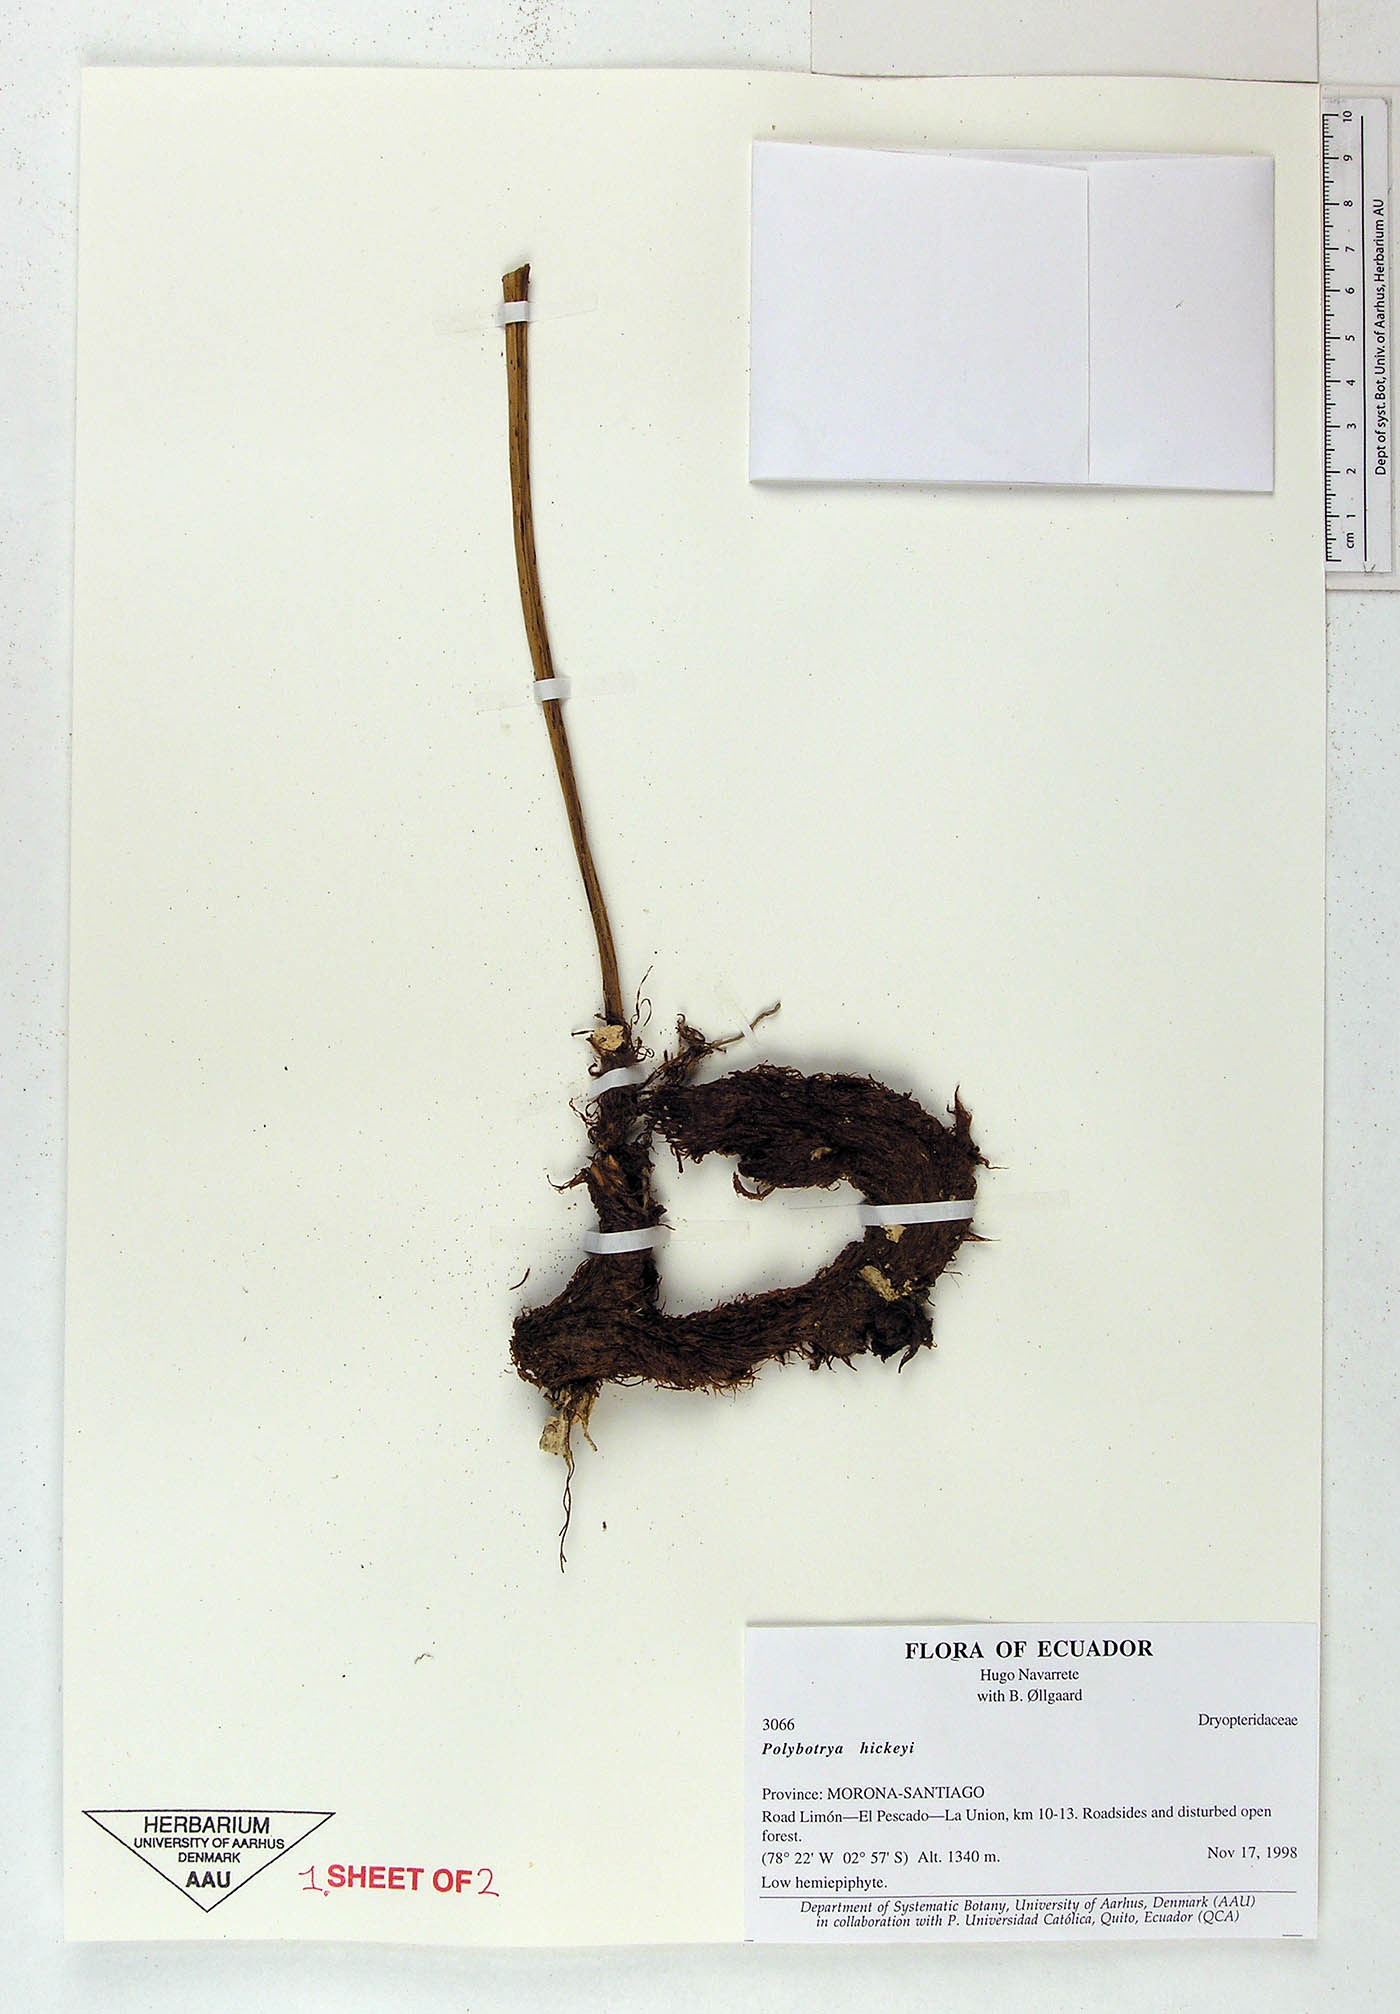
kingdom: Plantae
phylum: Tracheophyta
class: Polypodiopsida
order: Polypodiales
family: Dryopteridaceae
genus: Polybotrya
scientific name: Polybotrya hickeyi
